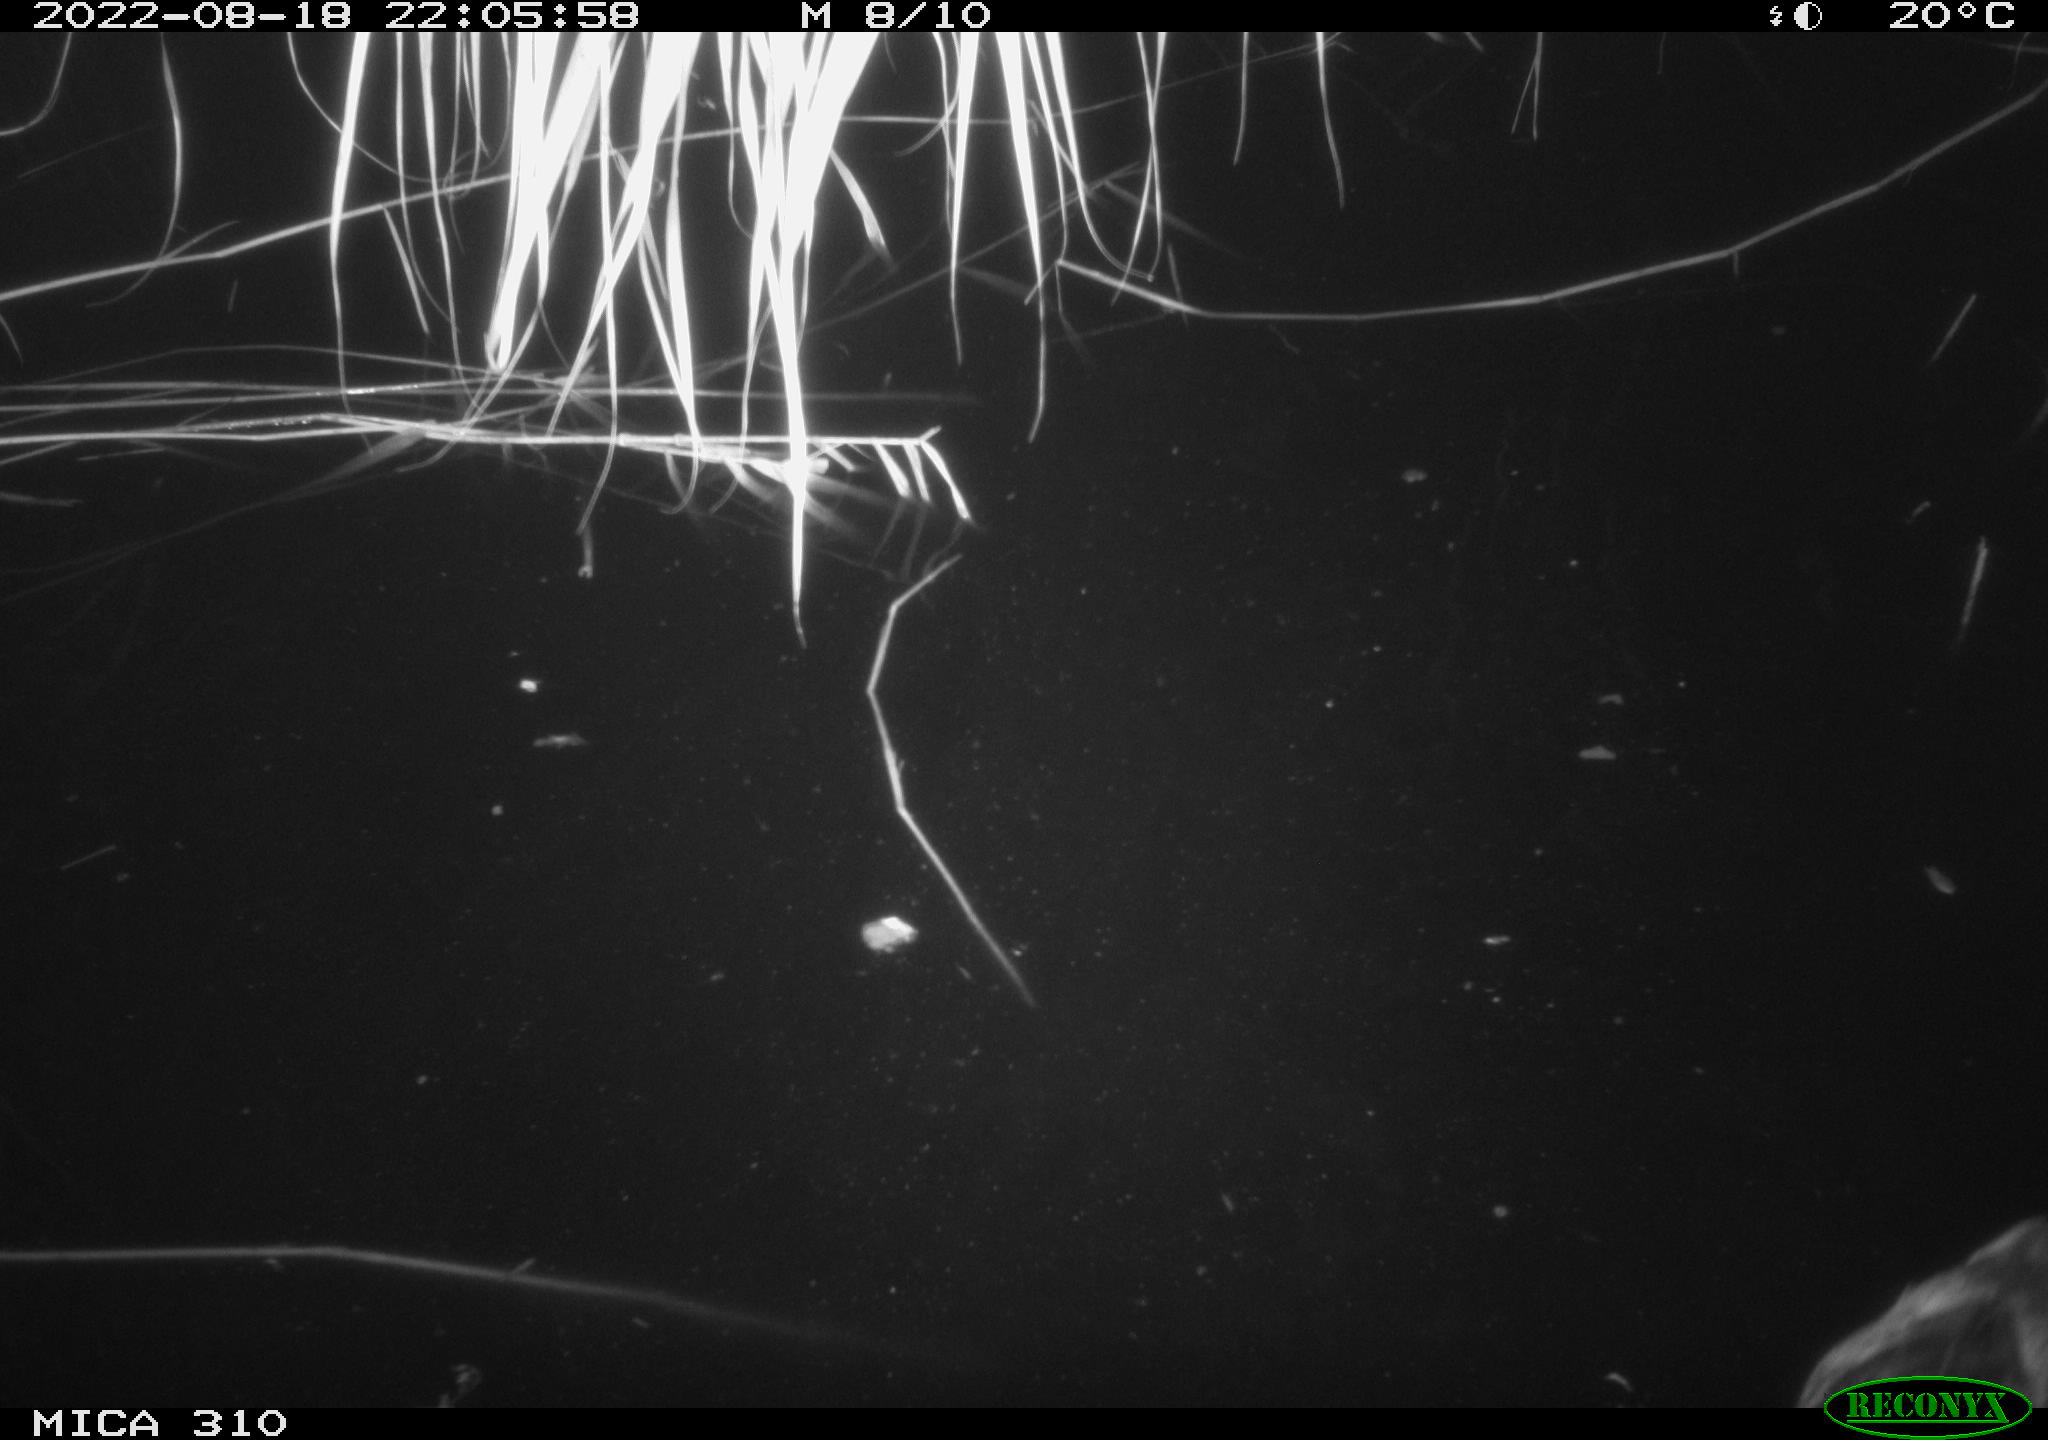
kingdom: Animalia
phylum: Chordata
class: Aves
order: Anseriformes
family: Anatidae
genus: Anas
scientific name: Anas platyrhynchos
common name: Mallard
